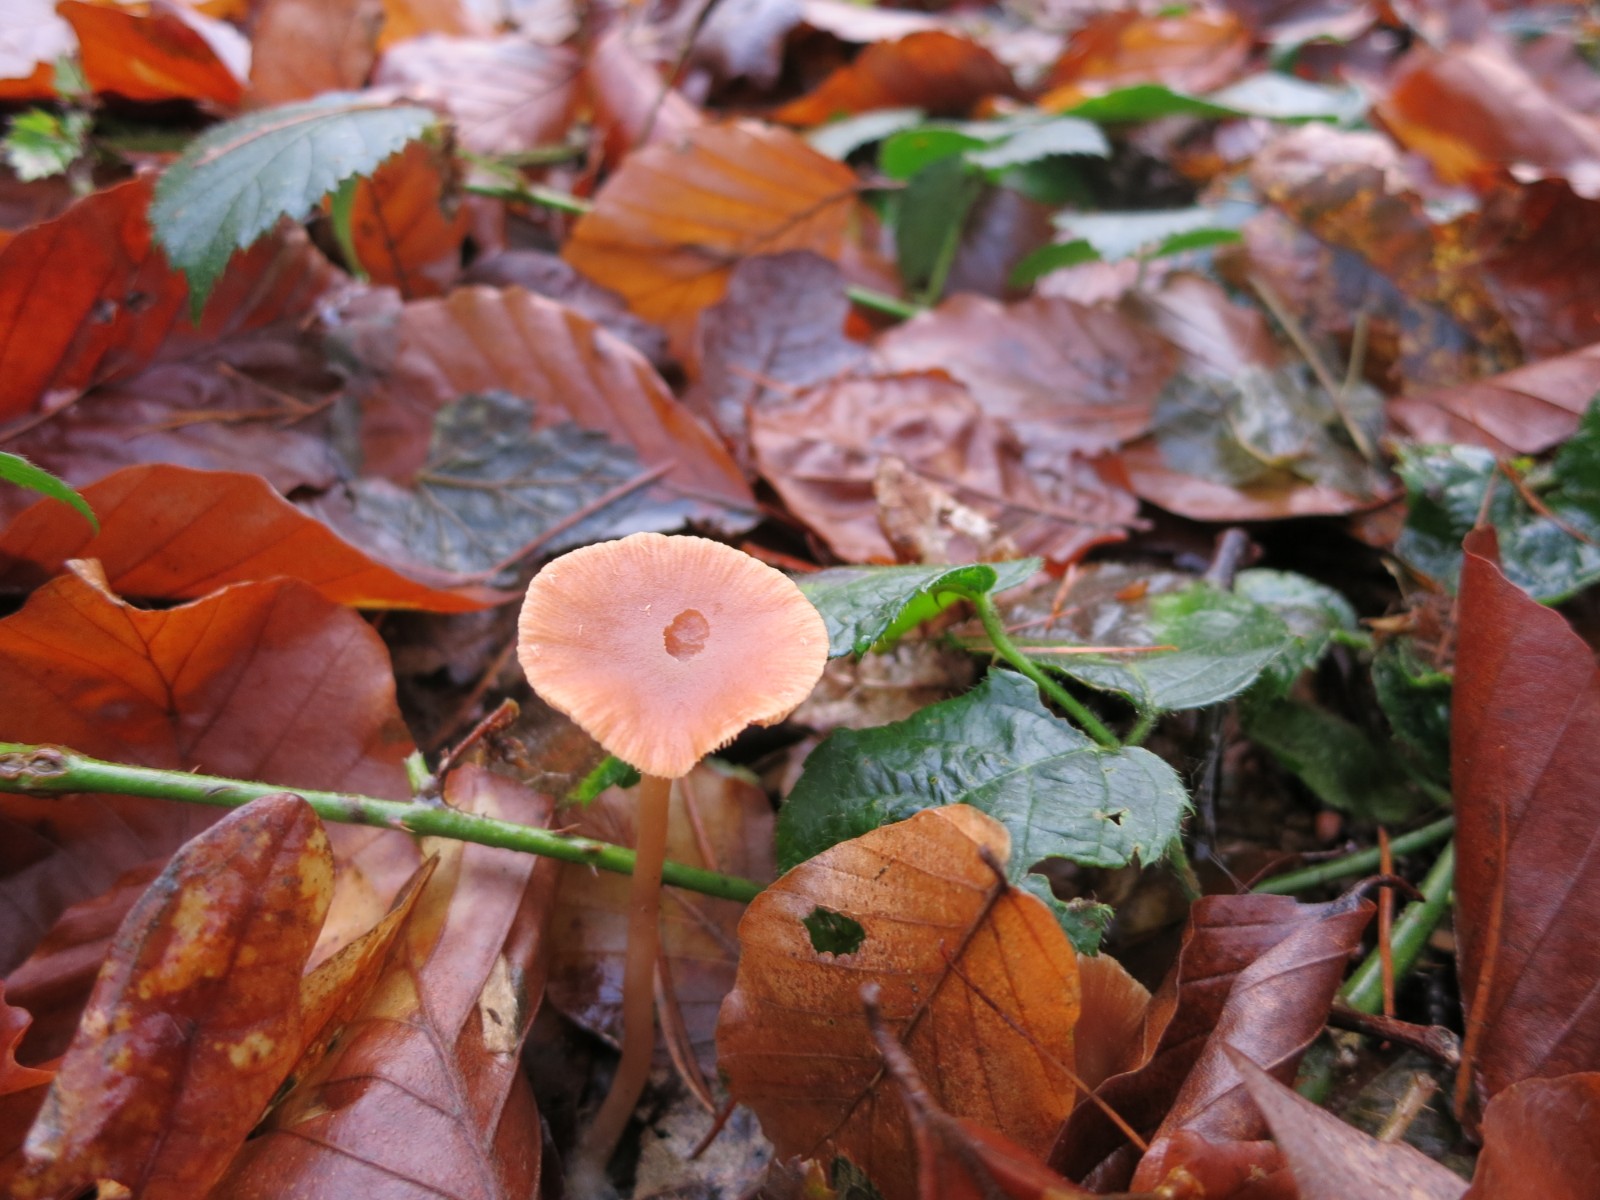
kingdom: Fungi
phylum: Basidiomycota
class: Agaricomycetes
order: Agaricales
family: Tubariaceae
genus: Tubaria
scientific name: Tubaria furfuracea
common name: kliddet fnughat
